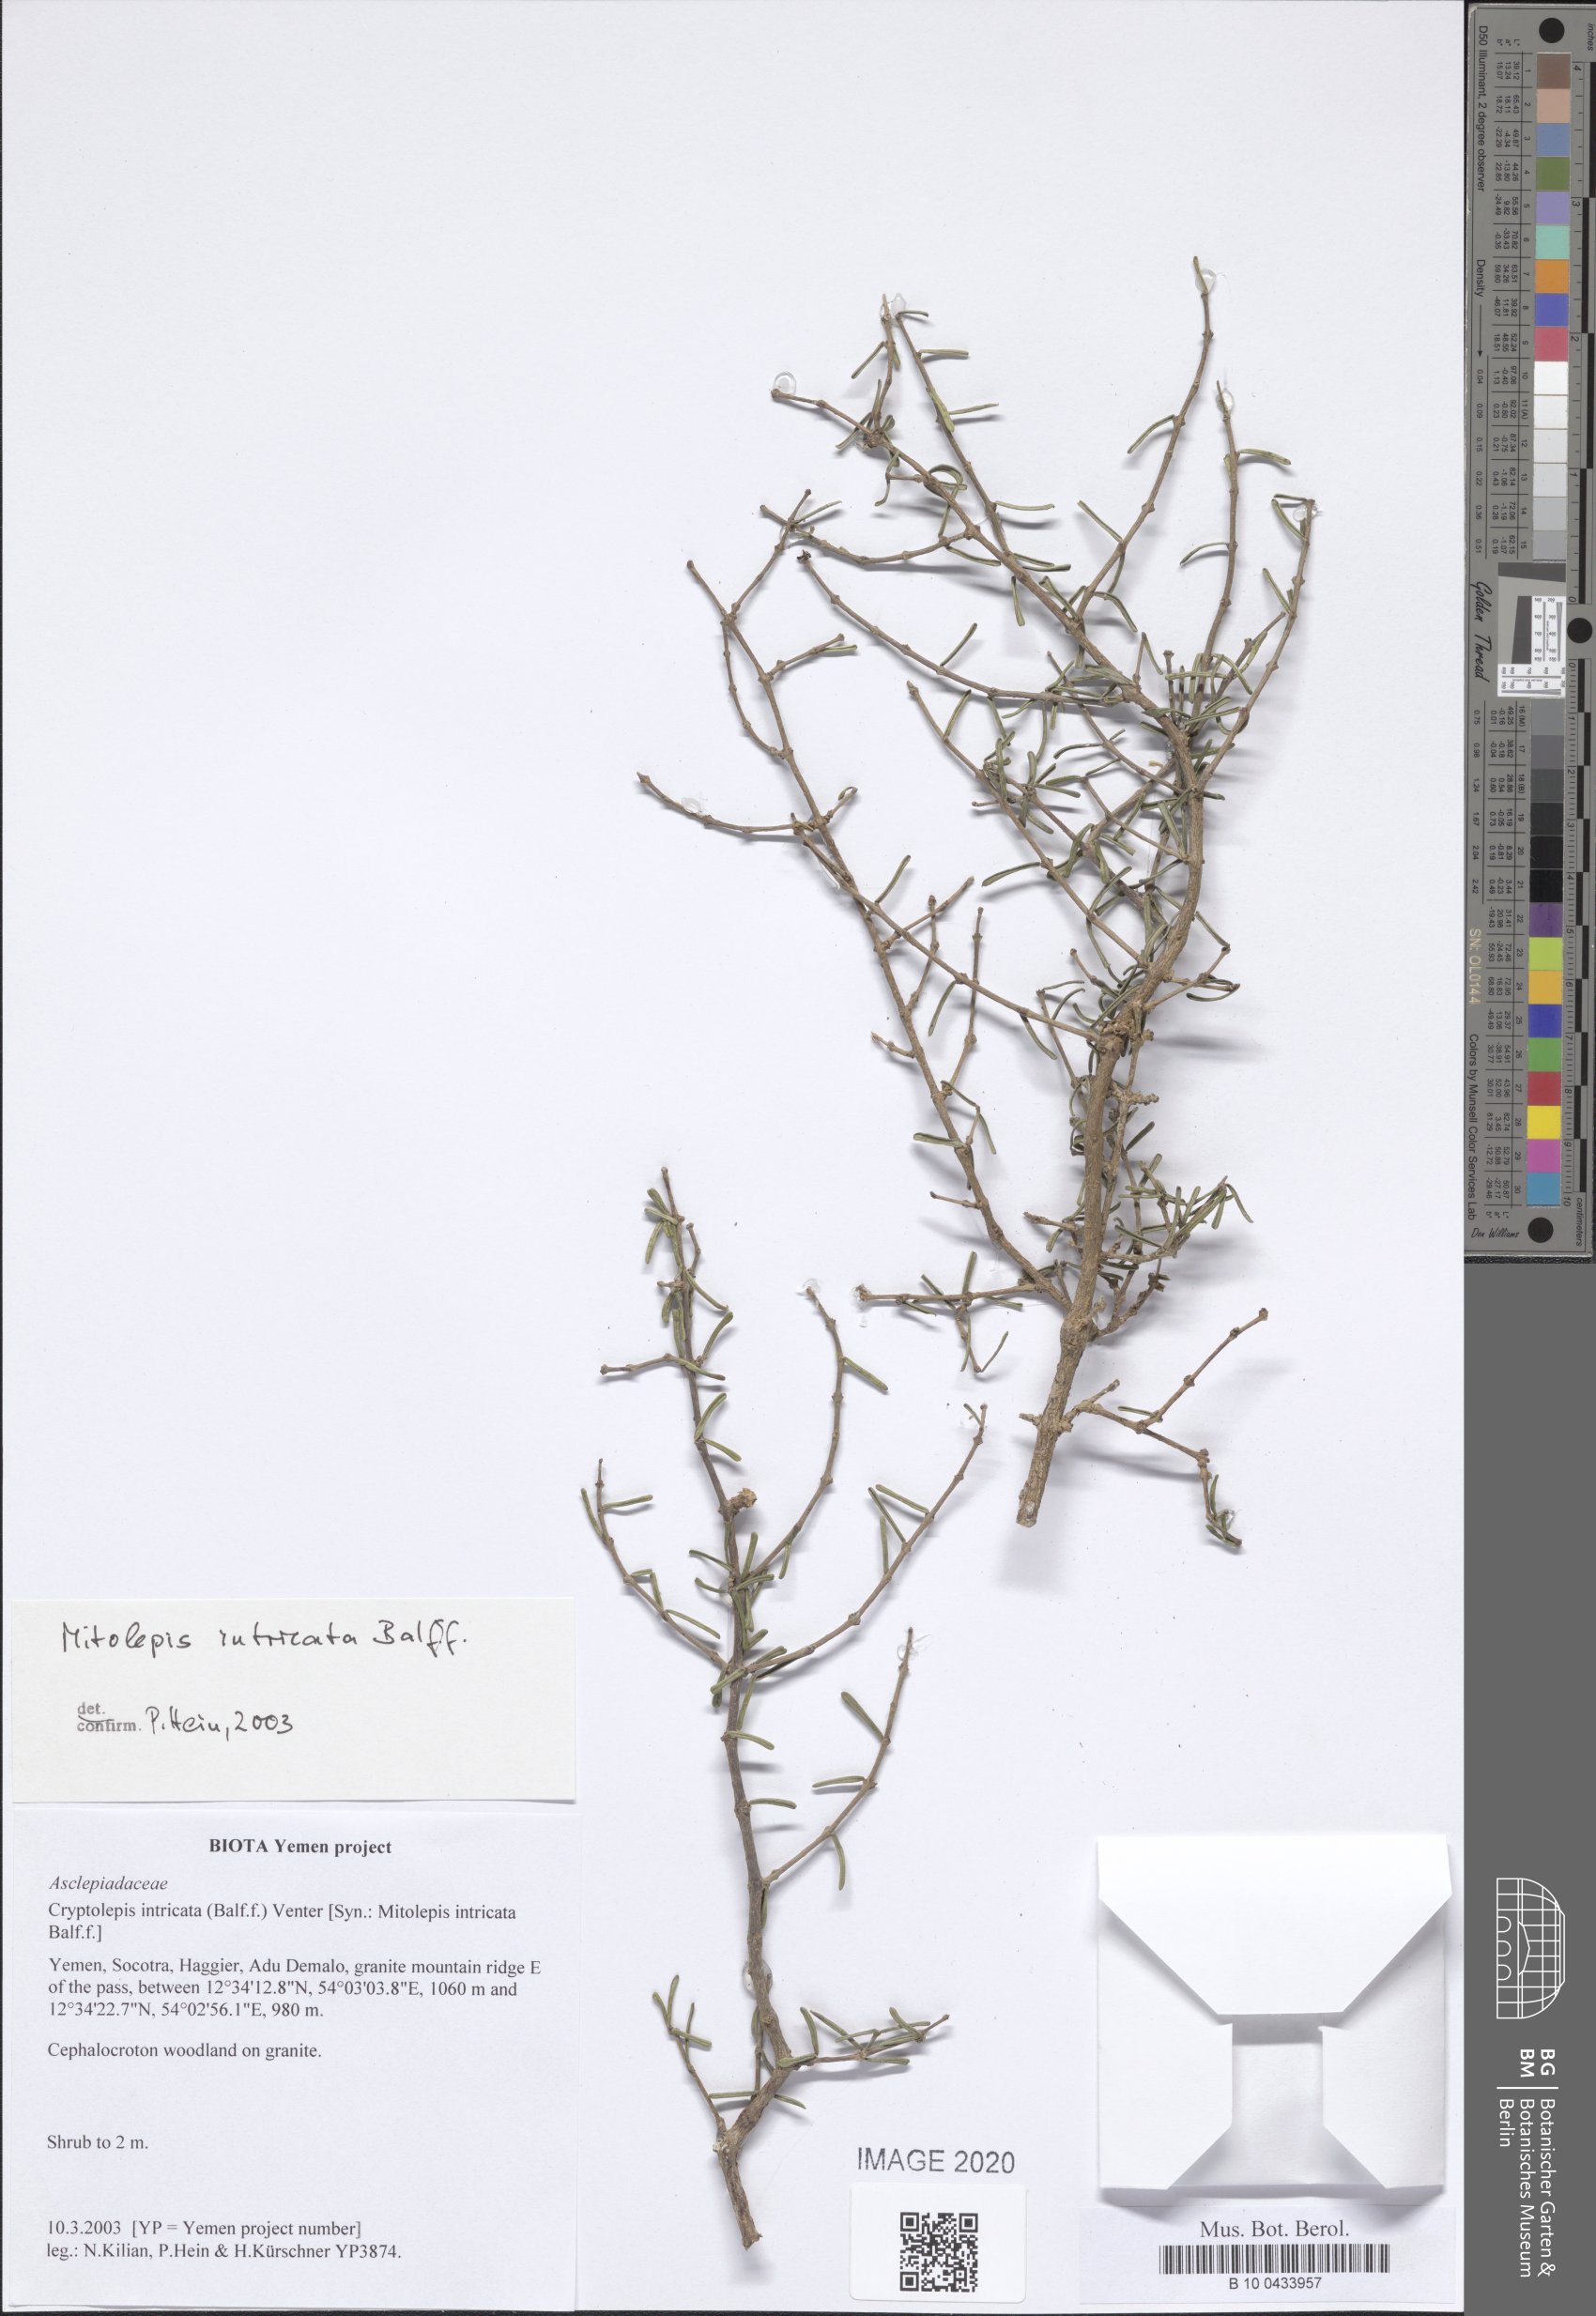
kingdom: Plantae
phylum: Tracheophyta
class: Magnoliopsida
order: Gentianales
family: Apocynaceae
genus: Cryptolepis
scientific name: Cryptolepis intricata
